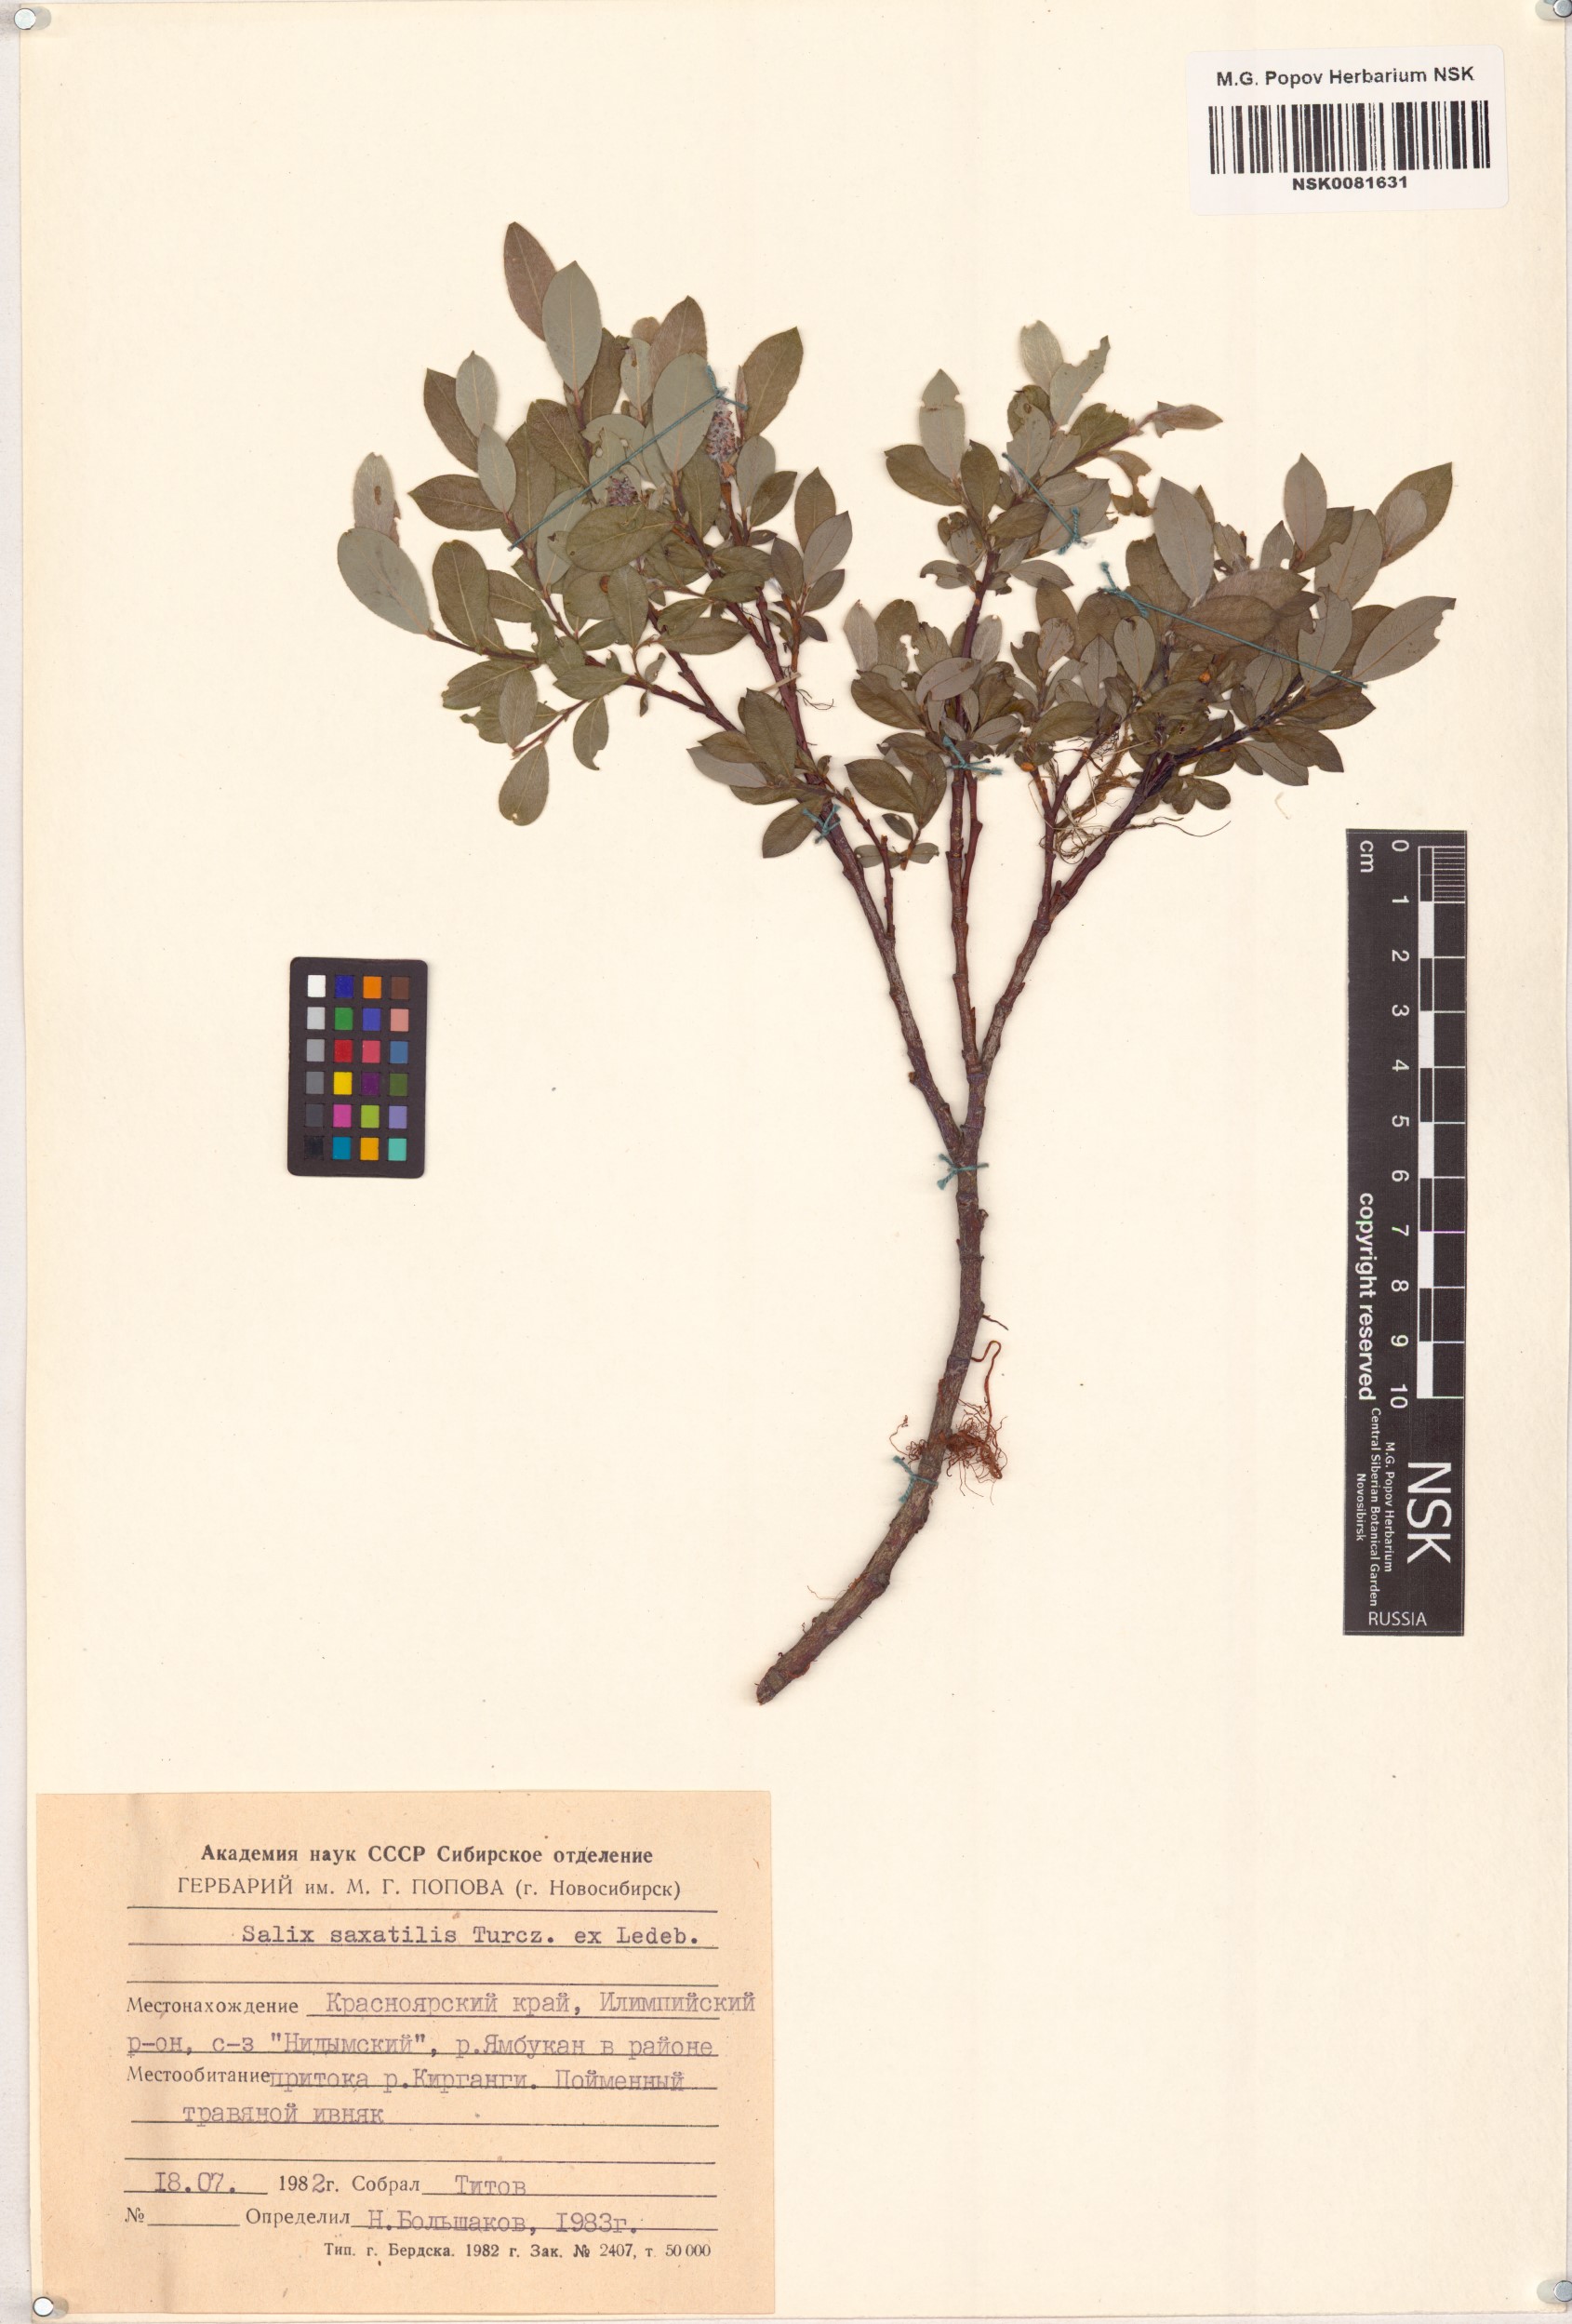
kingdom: Plantae
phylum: Tracheophyta
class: Magnoliopsida
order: Malpighiales
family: Salicaceae
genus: Salix
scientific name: Salix saxatilis
